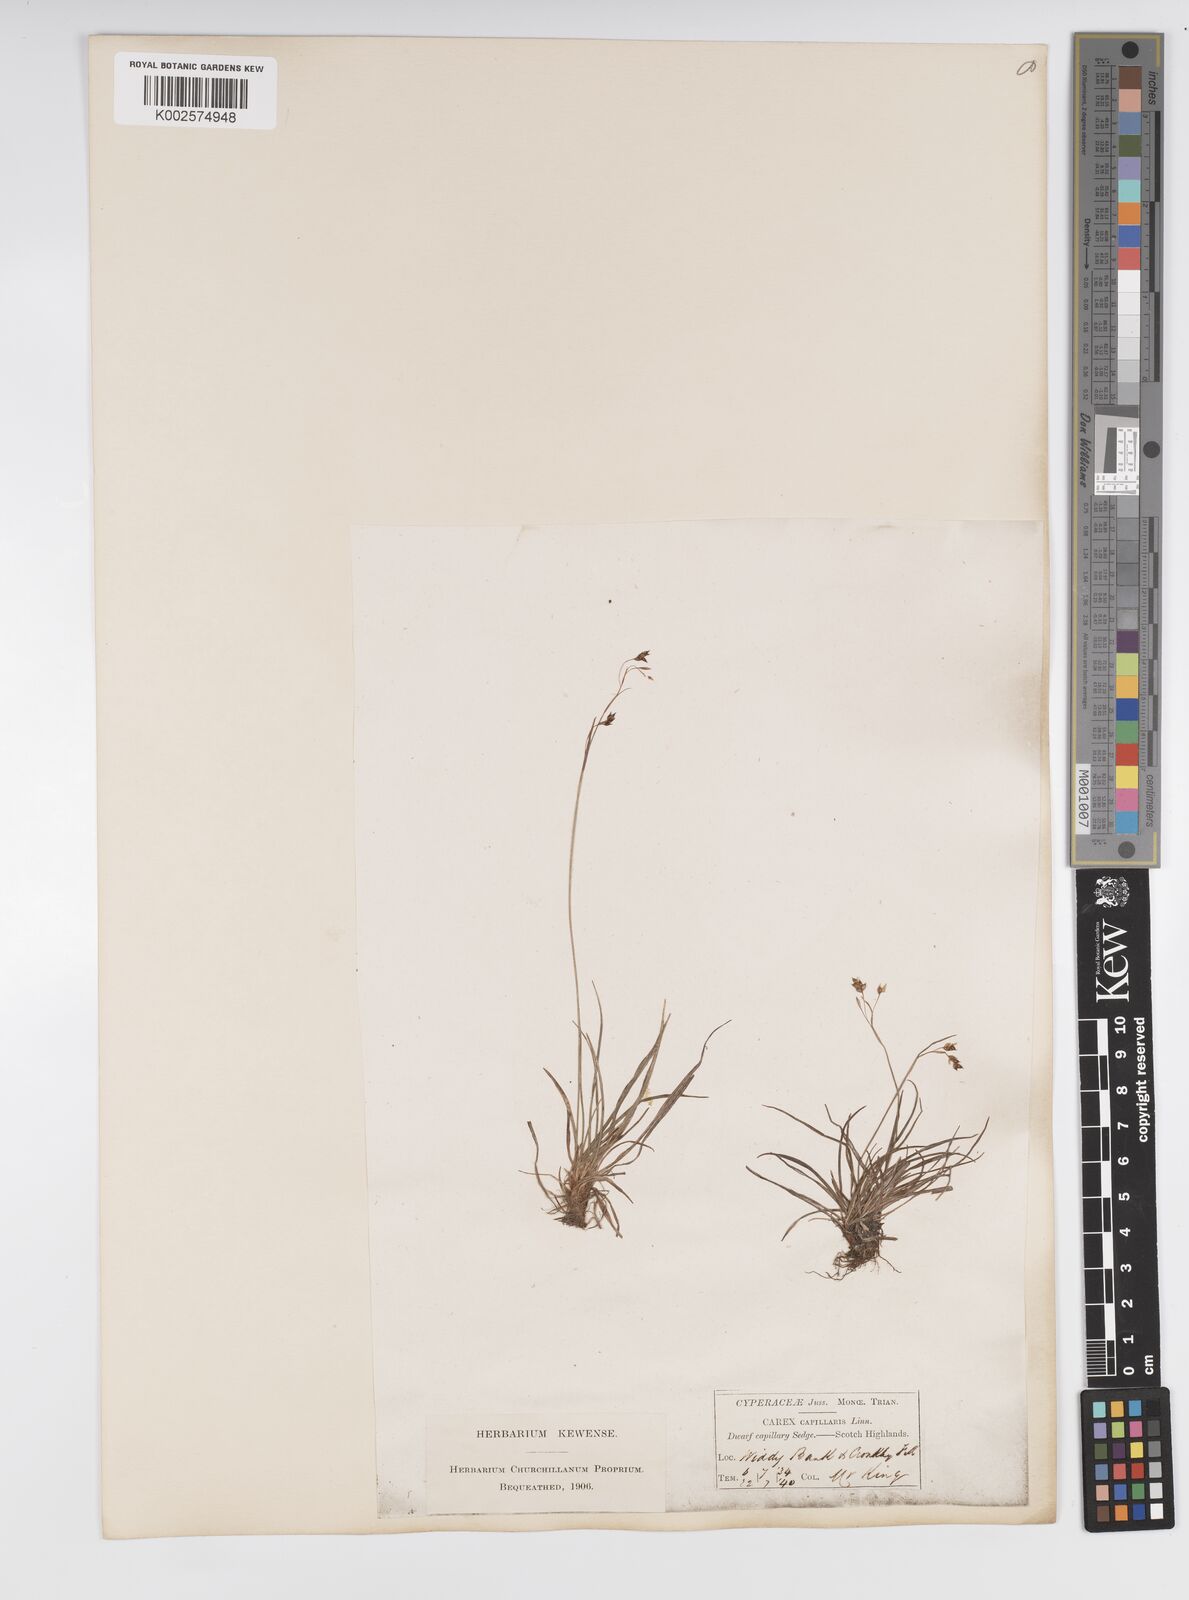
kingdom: Plantae
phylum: Tracheophyta
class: Liliopsida
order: Poales
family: Cyperaceae
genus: Carex
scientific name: Carex capillaris
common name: Hair sedge
